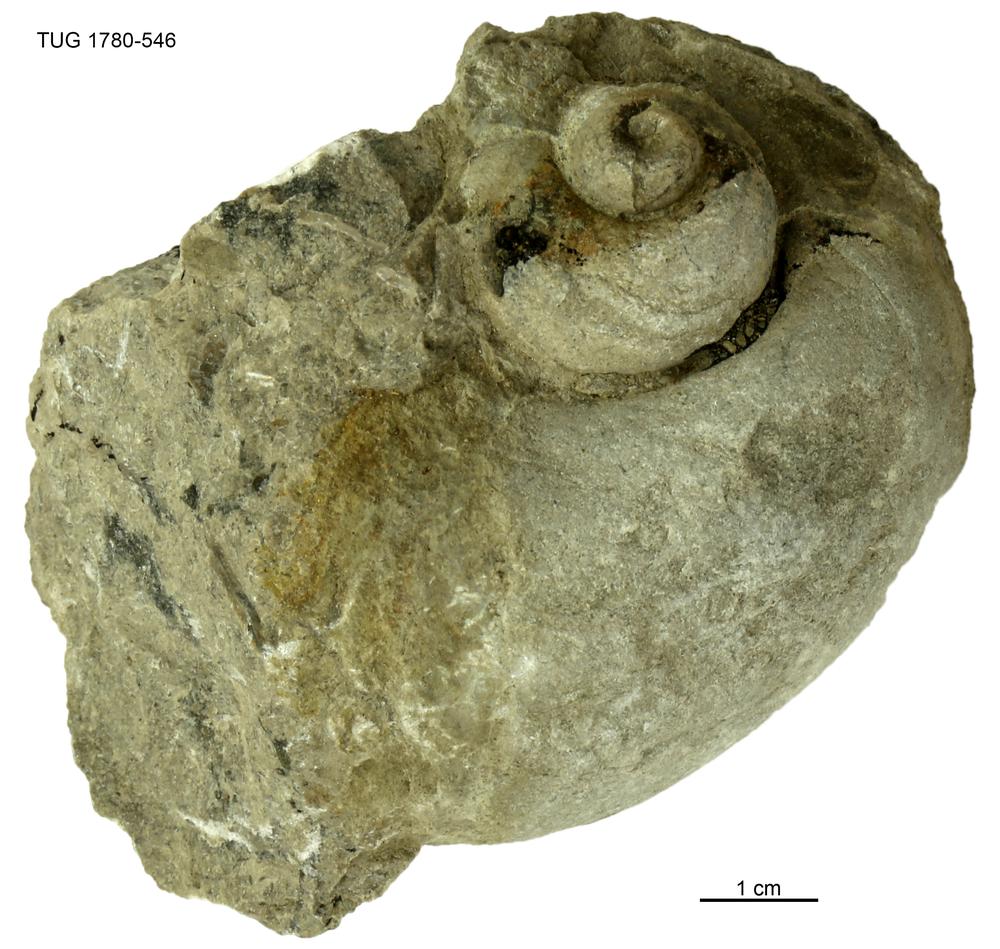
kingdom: Animalia
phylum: Mollusca
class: Gastropoda
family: Holopeidae
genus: Holopea
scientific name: Holopea ampullacea
